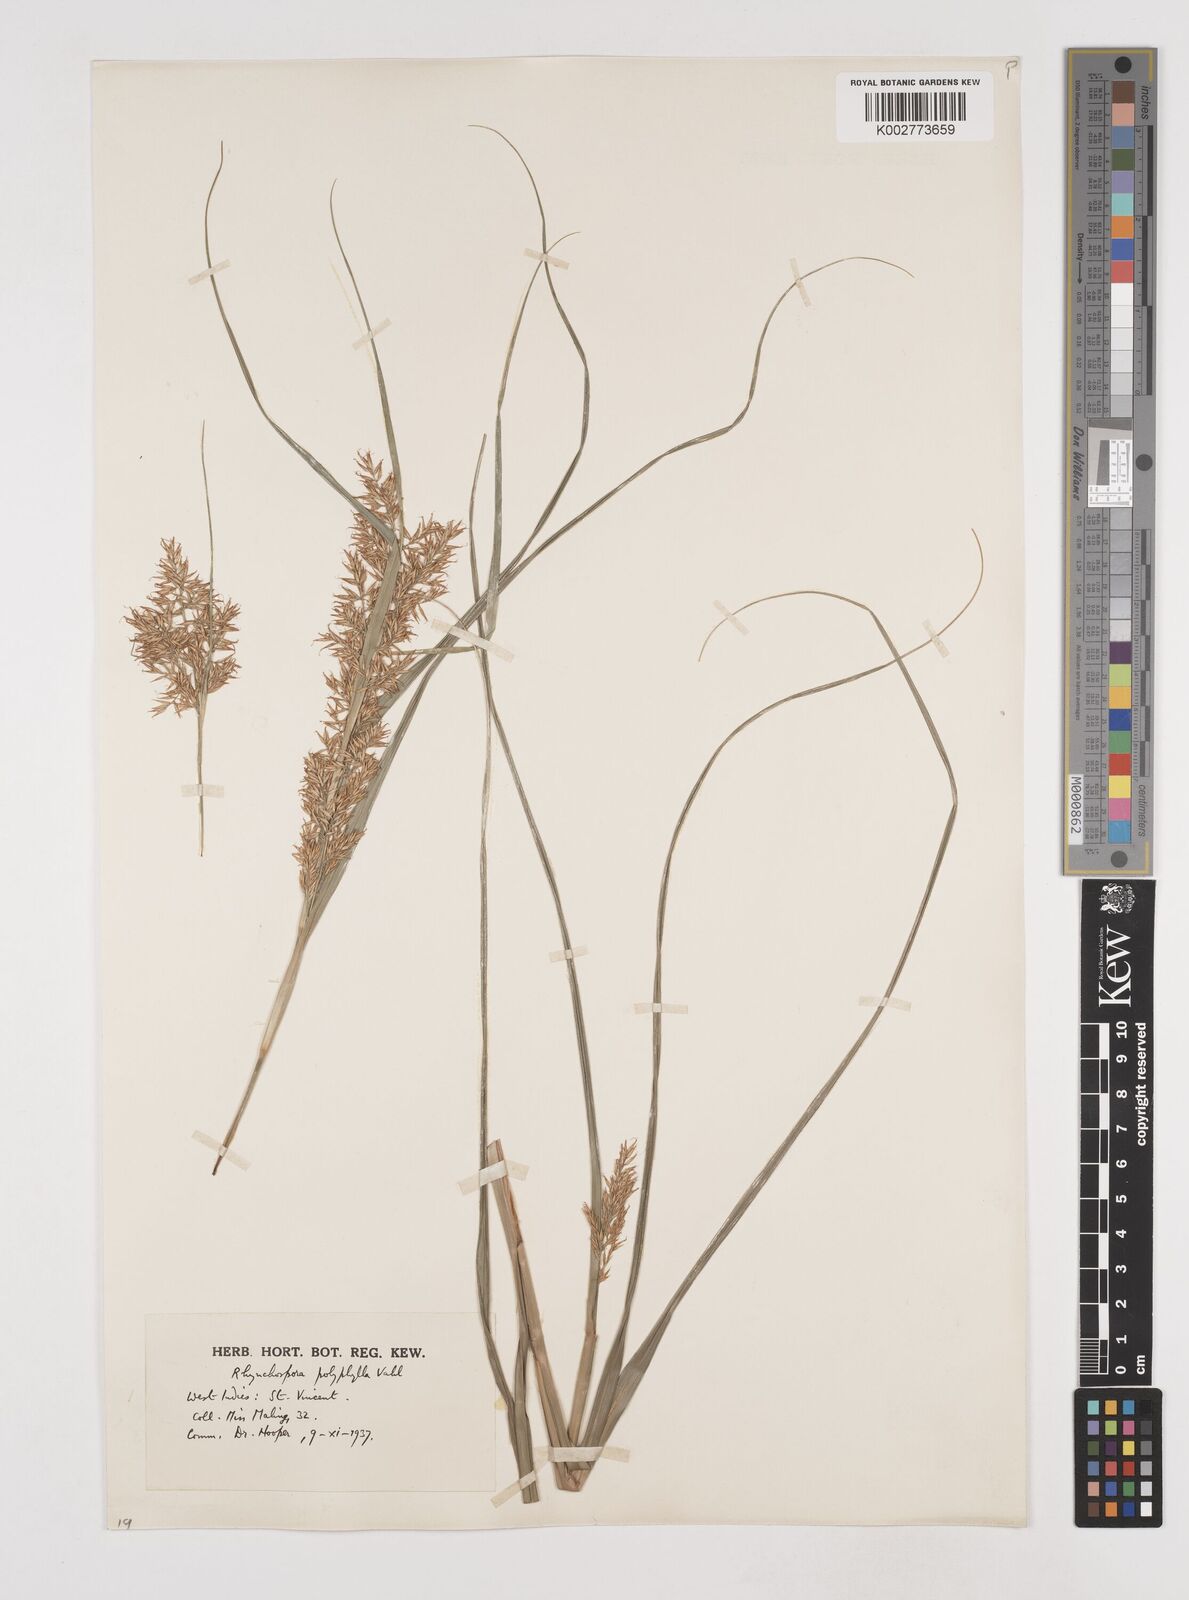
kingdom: Plantae
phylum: Tracheophyta
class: Liliopsida
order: Poales
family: Cyperaceae
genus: Rhynchospora
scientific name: Rhynchospora polyphylla
